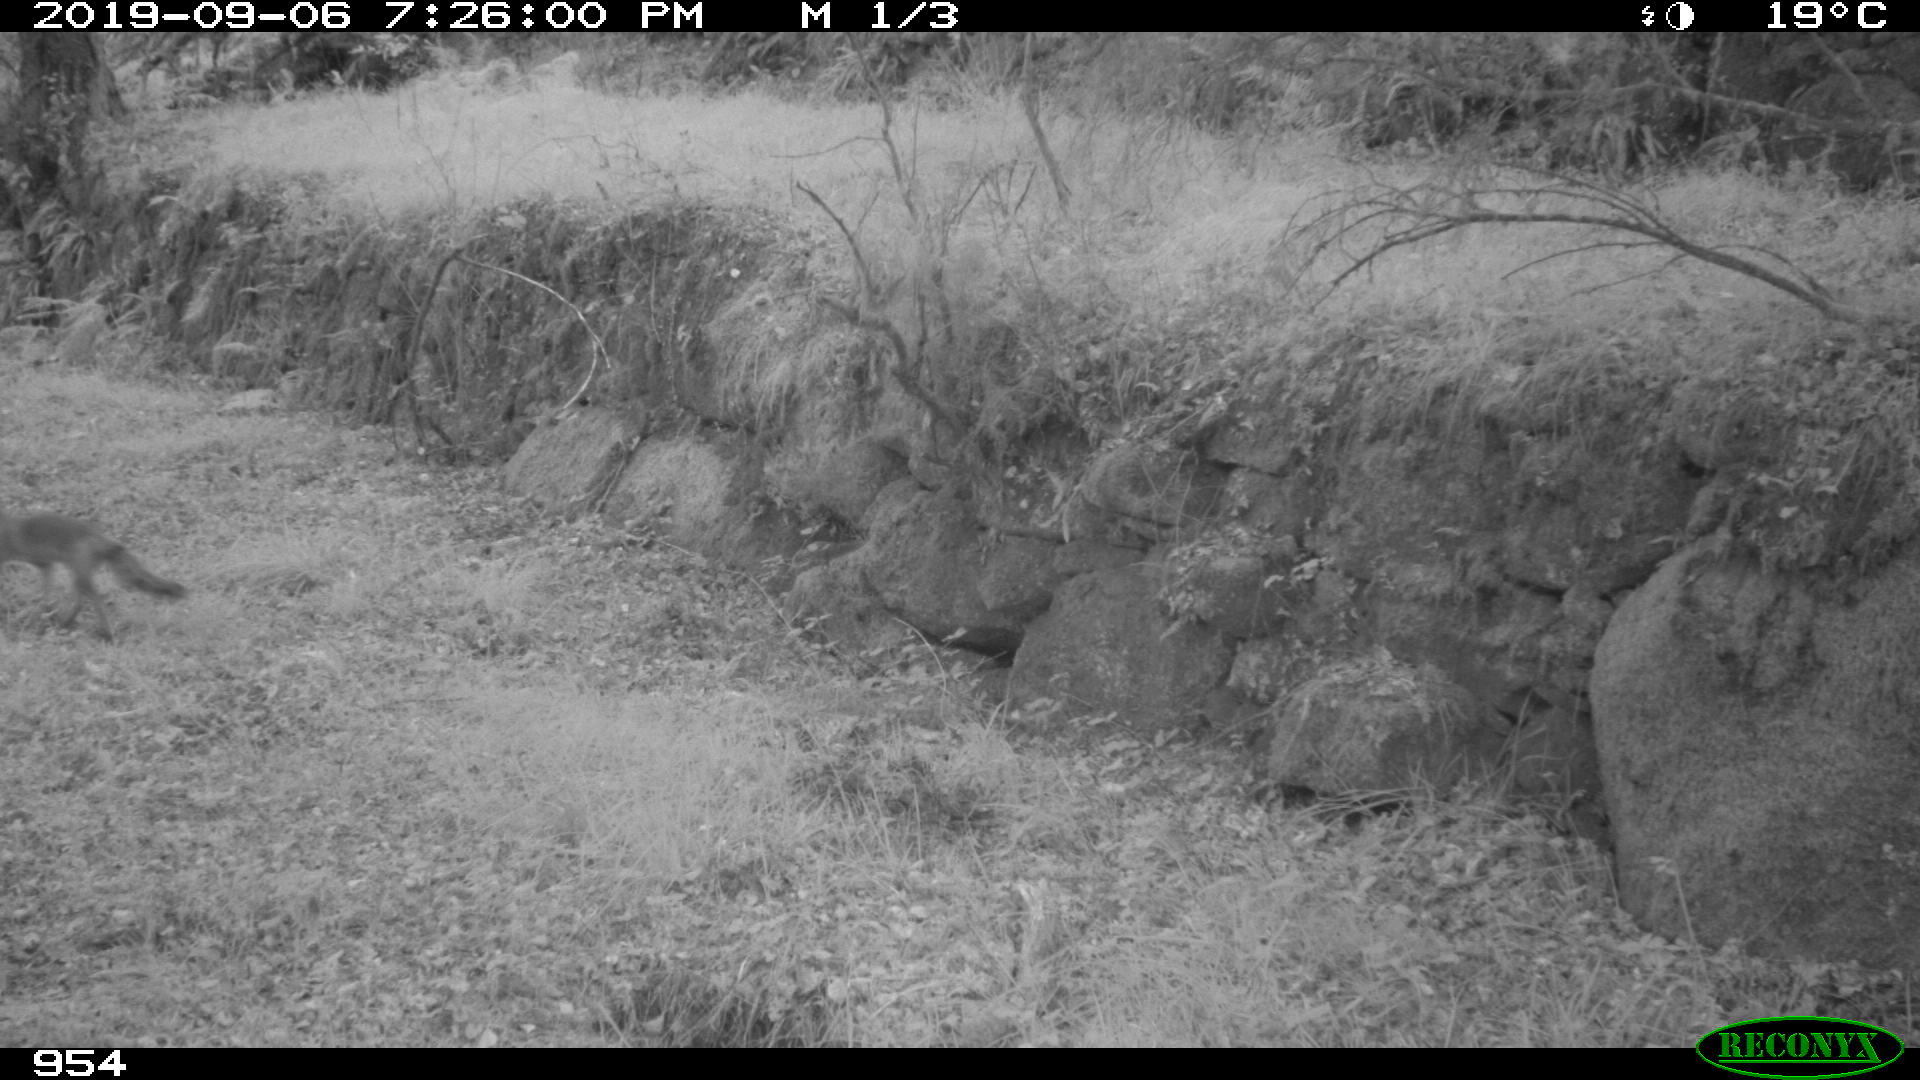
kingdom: Animalia
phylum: Chordata
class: Mammalia
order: Carnivora
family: Canidae
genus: Vulpes
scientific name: Vulpes vulpes
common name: Red fox
